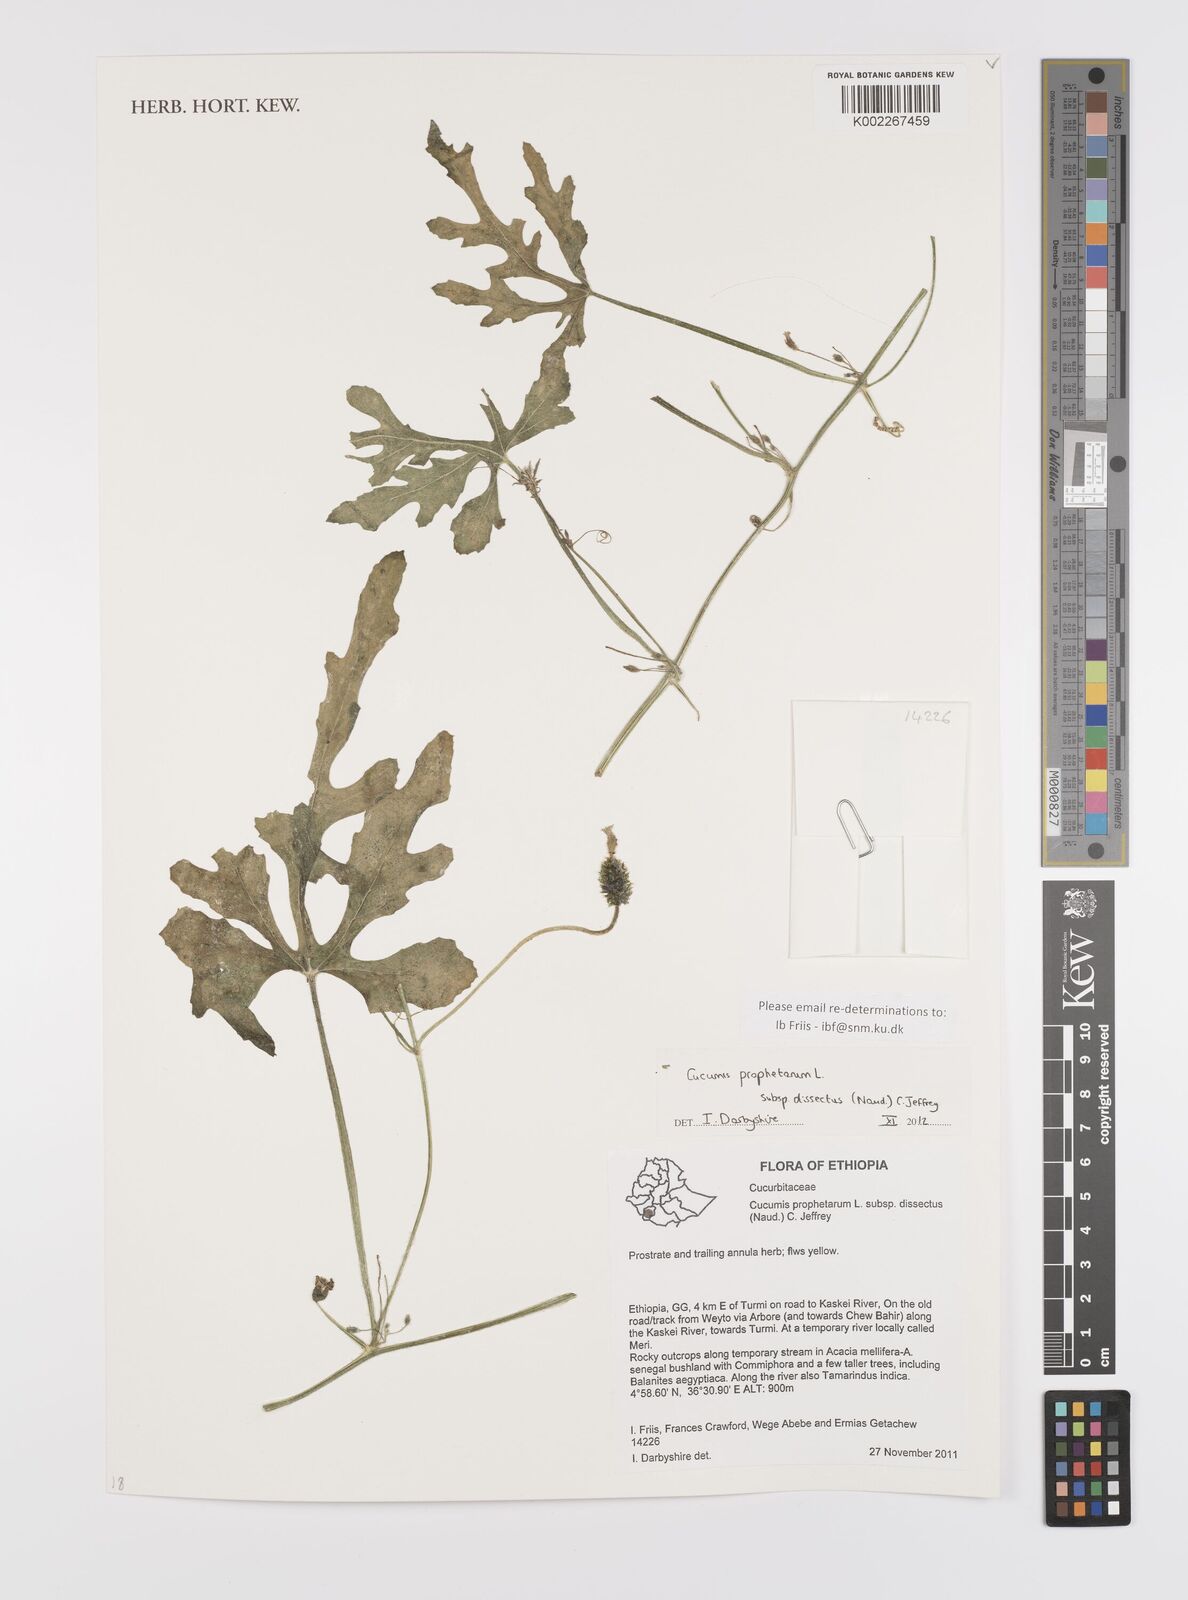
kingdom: Plantae
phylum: Tracheophyta
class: Magnoliopsida
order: Cucurbitales
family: Cucurbitaceae
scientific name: Cucurbitaceae
